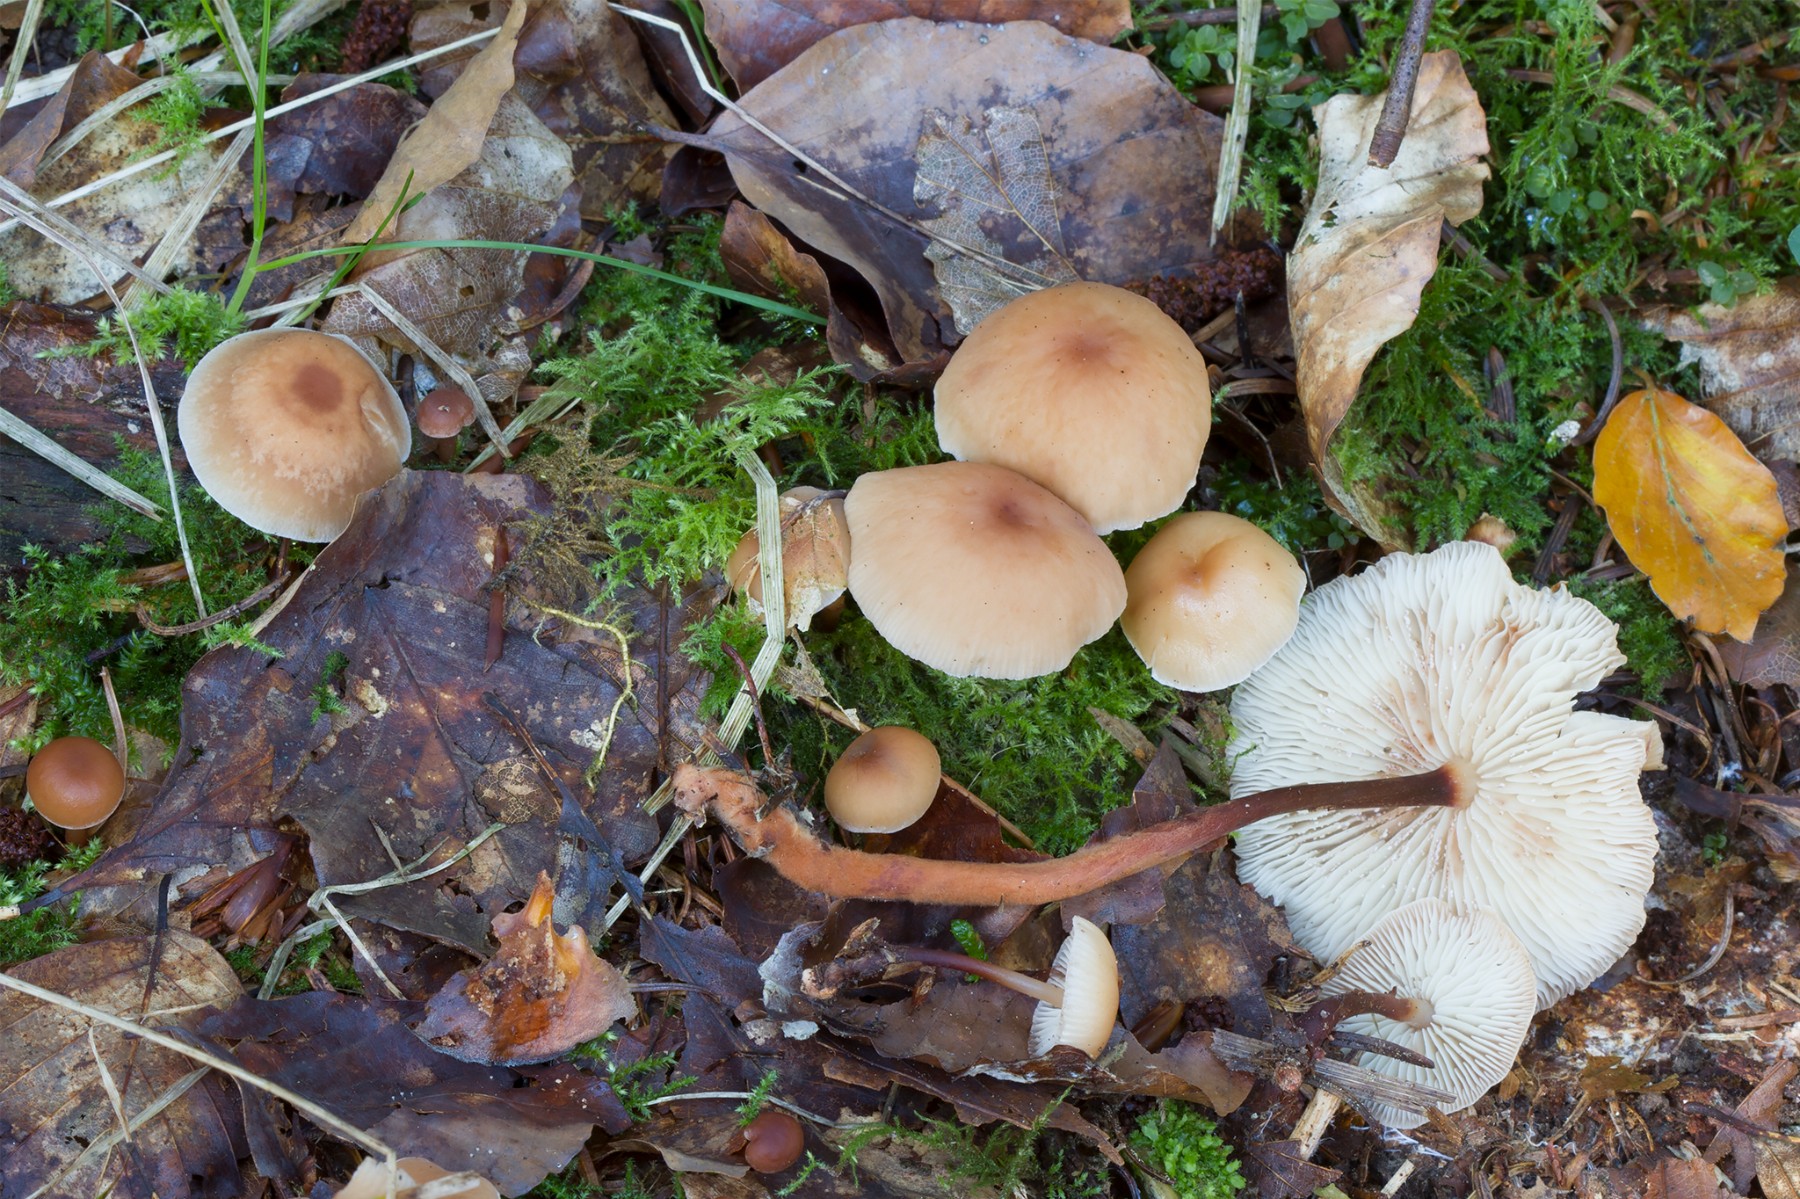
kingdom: Fungi
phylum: Basidiomycota
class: Agaricomycetes
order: Agaricales
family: Omphalotaceae
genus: Gymnopus
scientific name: Gymnopus erythropus
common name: rødstokket fladhat
